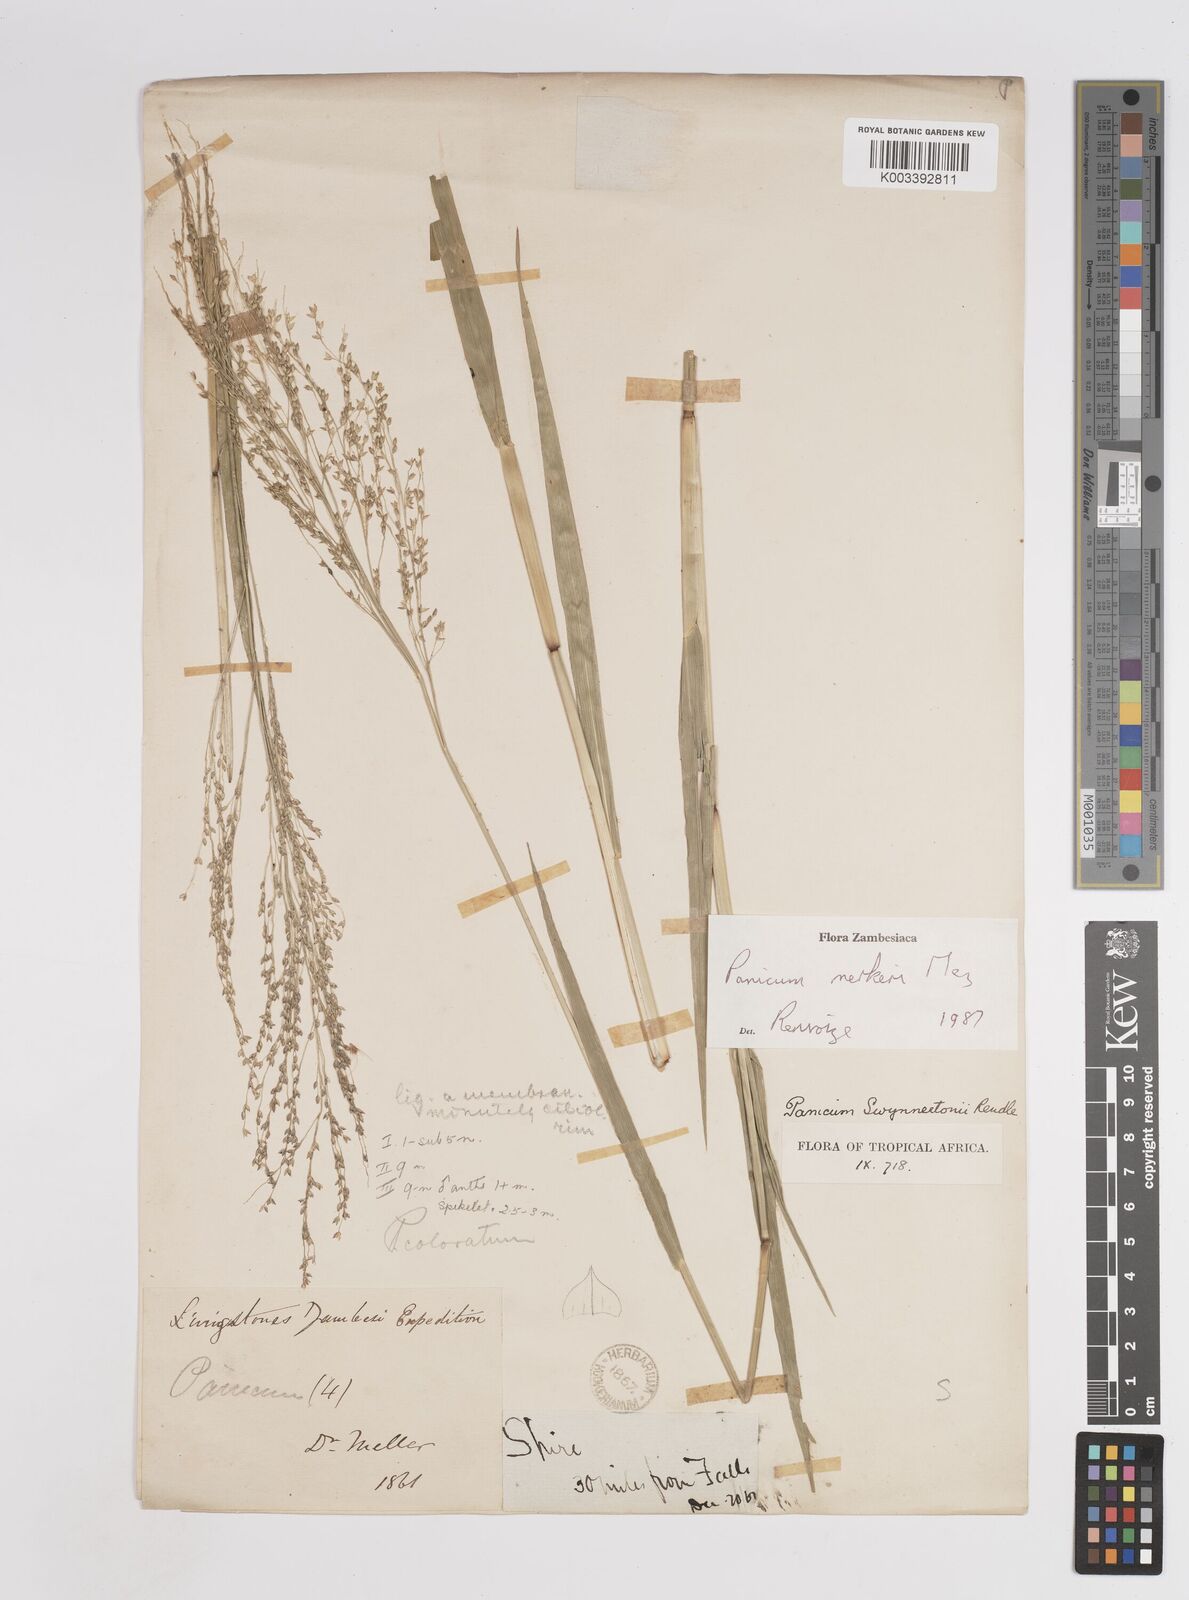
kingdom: Plantae
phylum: Tracheophyta
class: Liliopsida
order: Poales
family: Poaceae
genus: Panicum
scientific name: Panicum merkeri
